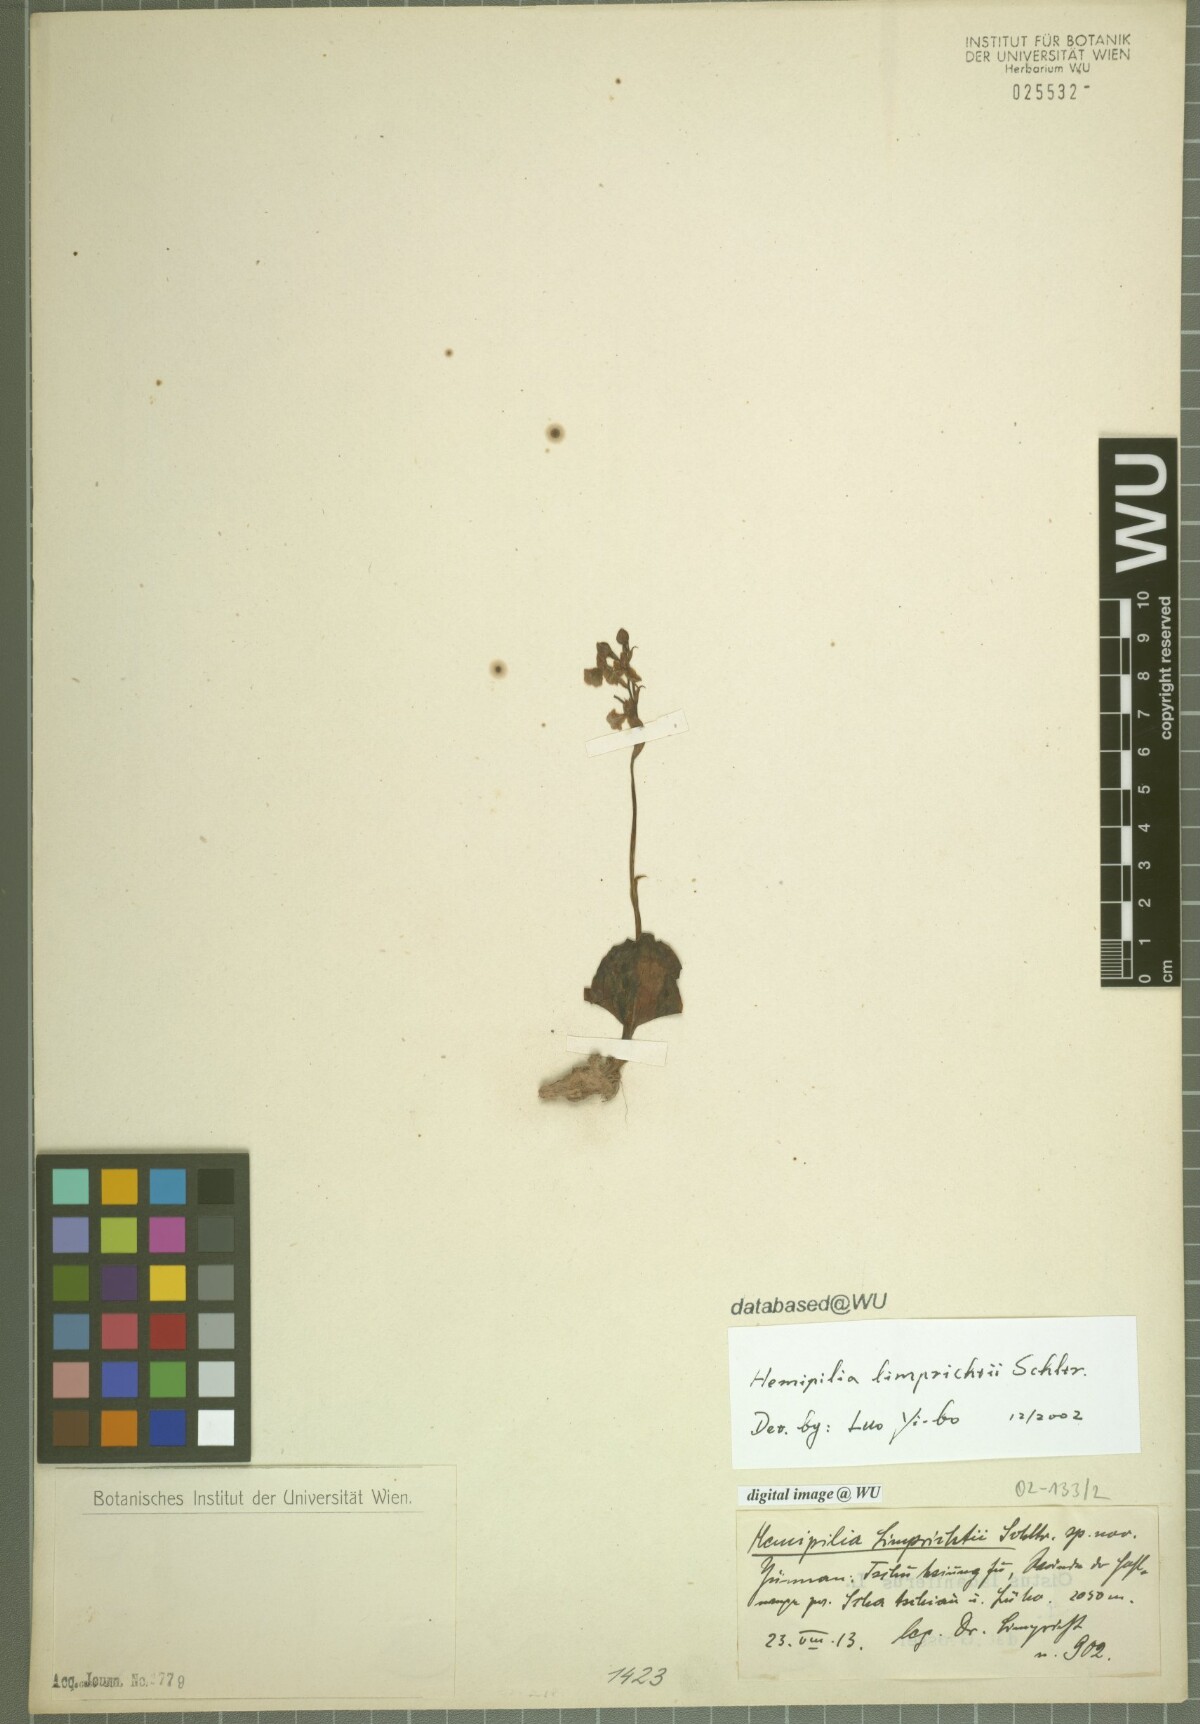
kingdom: Plantae
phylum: Tracheophyta
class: Liliopsida
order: Asparagales
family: Orchidaceae
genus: Hemipilia
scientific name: Hemipilia limprichtii
